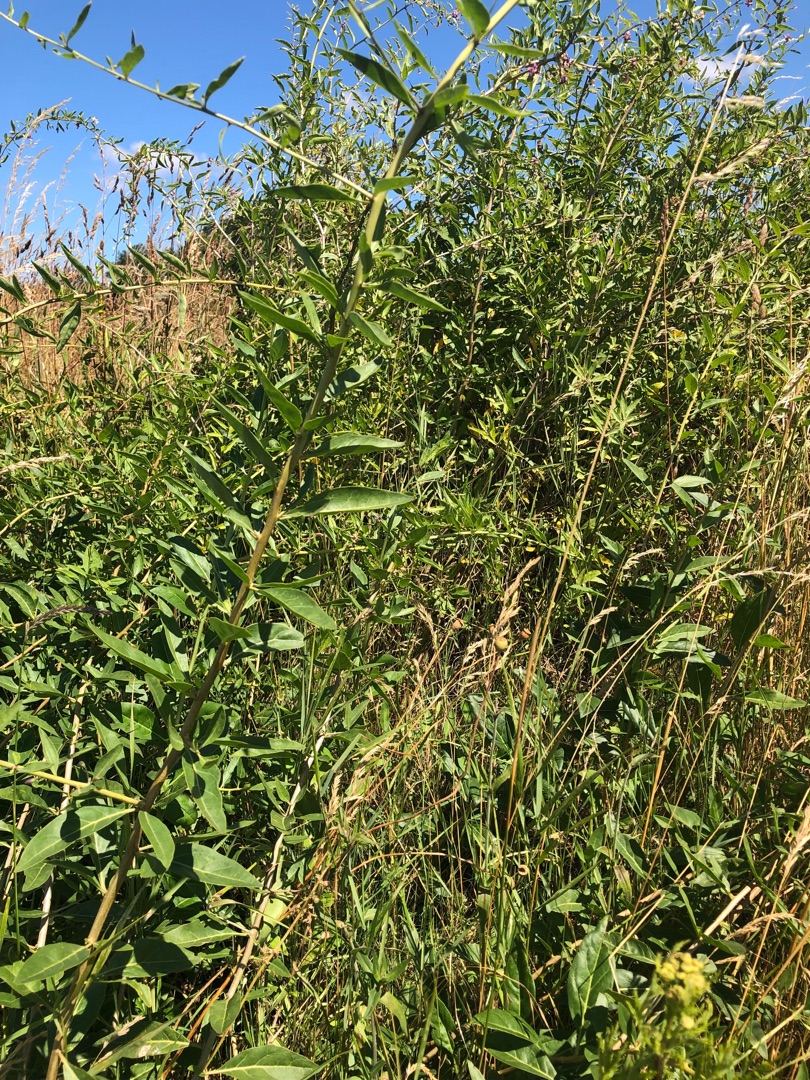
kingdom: Plantae
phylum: Tracheophyta
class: Magnoliopsida
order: Solanales
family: Solanaceae
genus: Lycium
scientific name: Lycium barbarum
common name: Bukketorn
